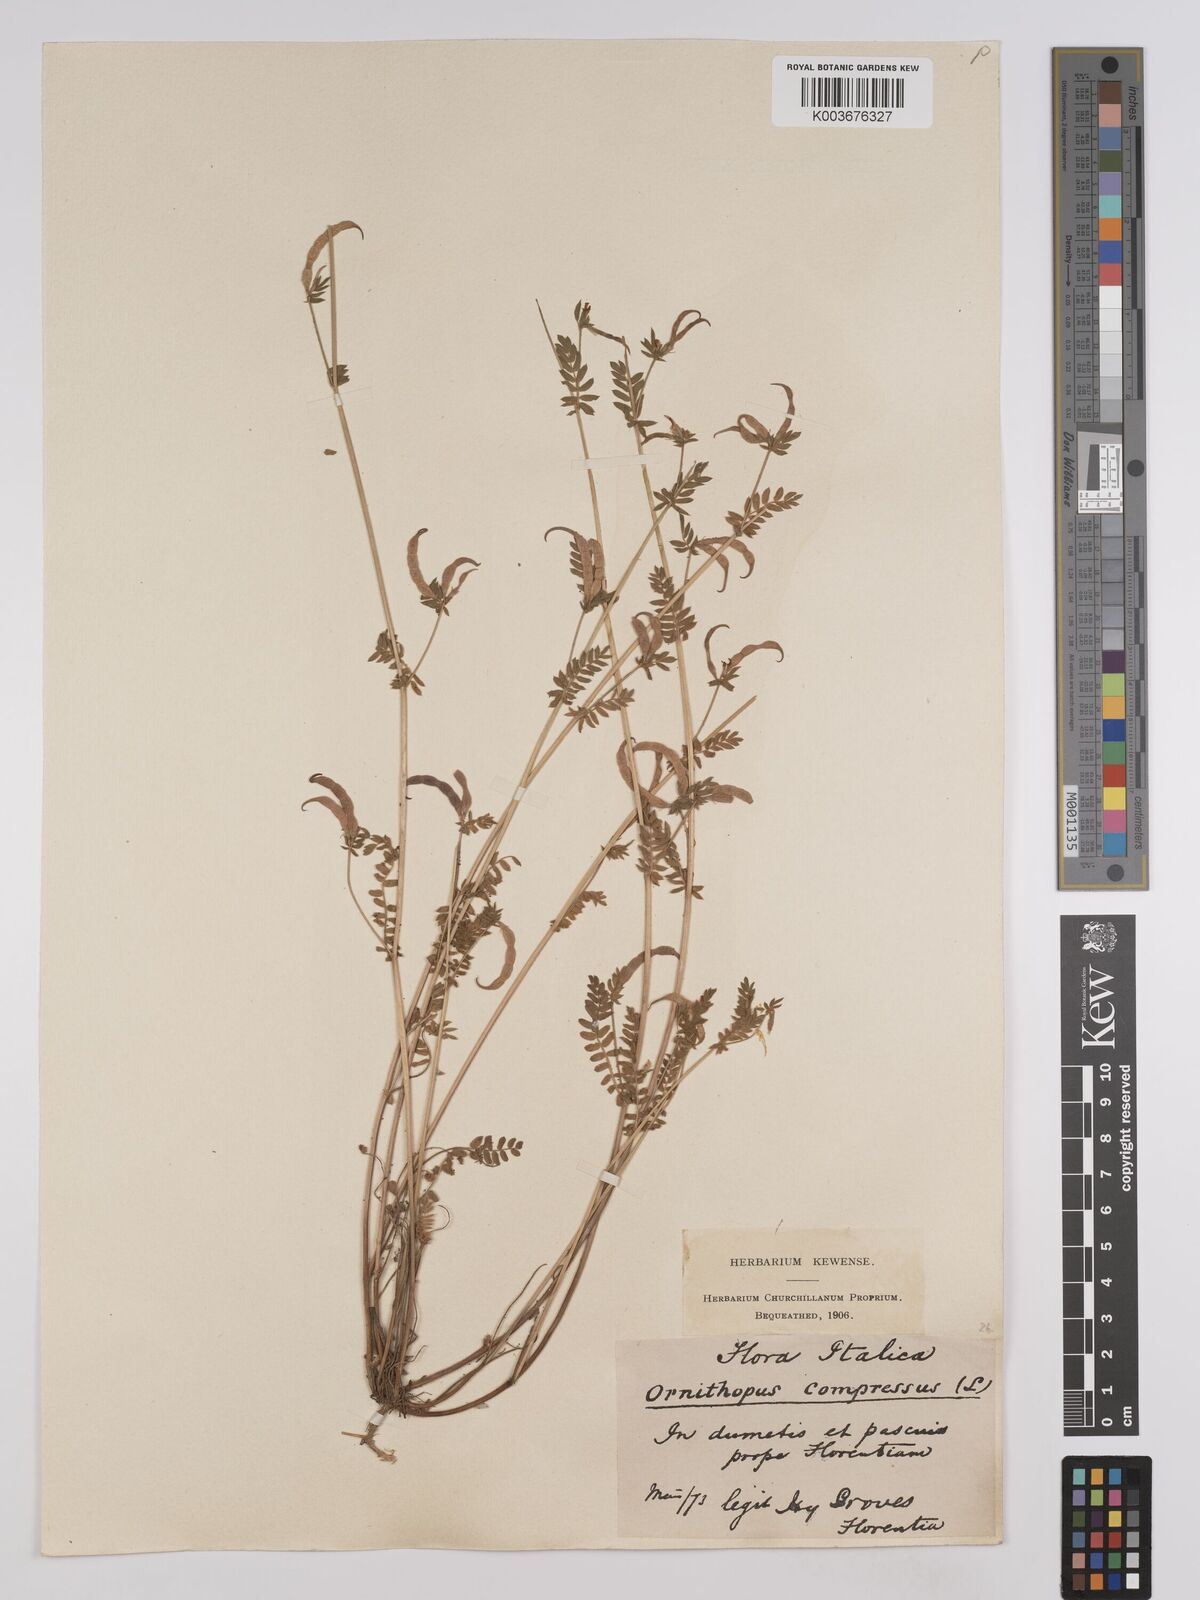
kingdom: Plantae
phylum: Tracheophyta
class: Magnoliopsida
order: Fabales
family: Fabaceae
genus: Ornithopus
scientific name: Ornithopus compressus
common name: Yellow serradella
